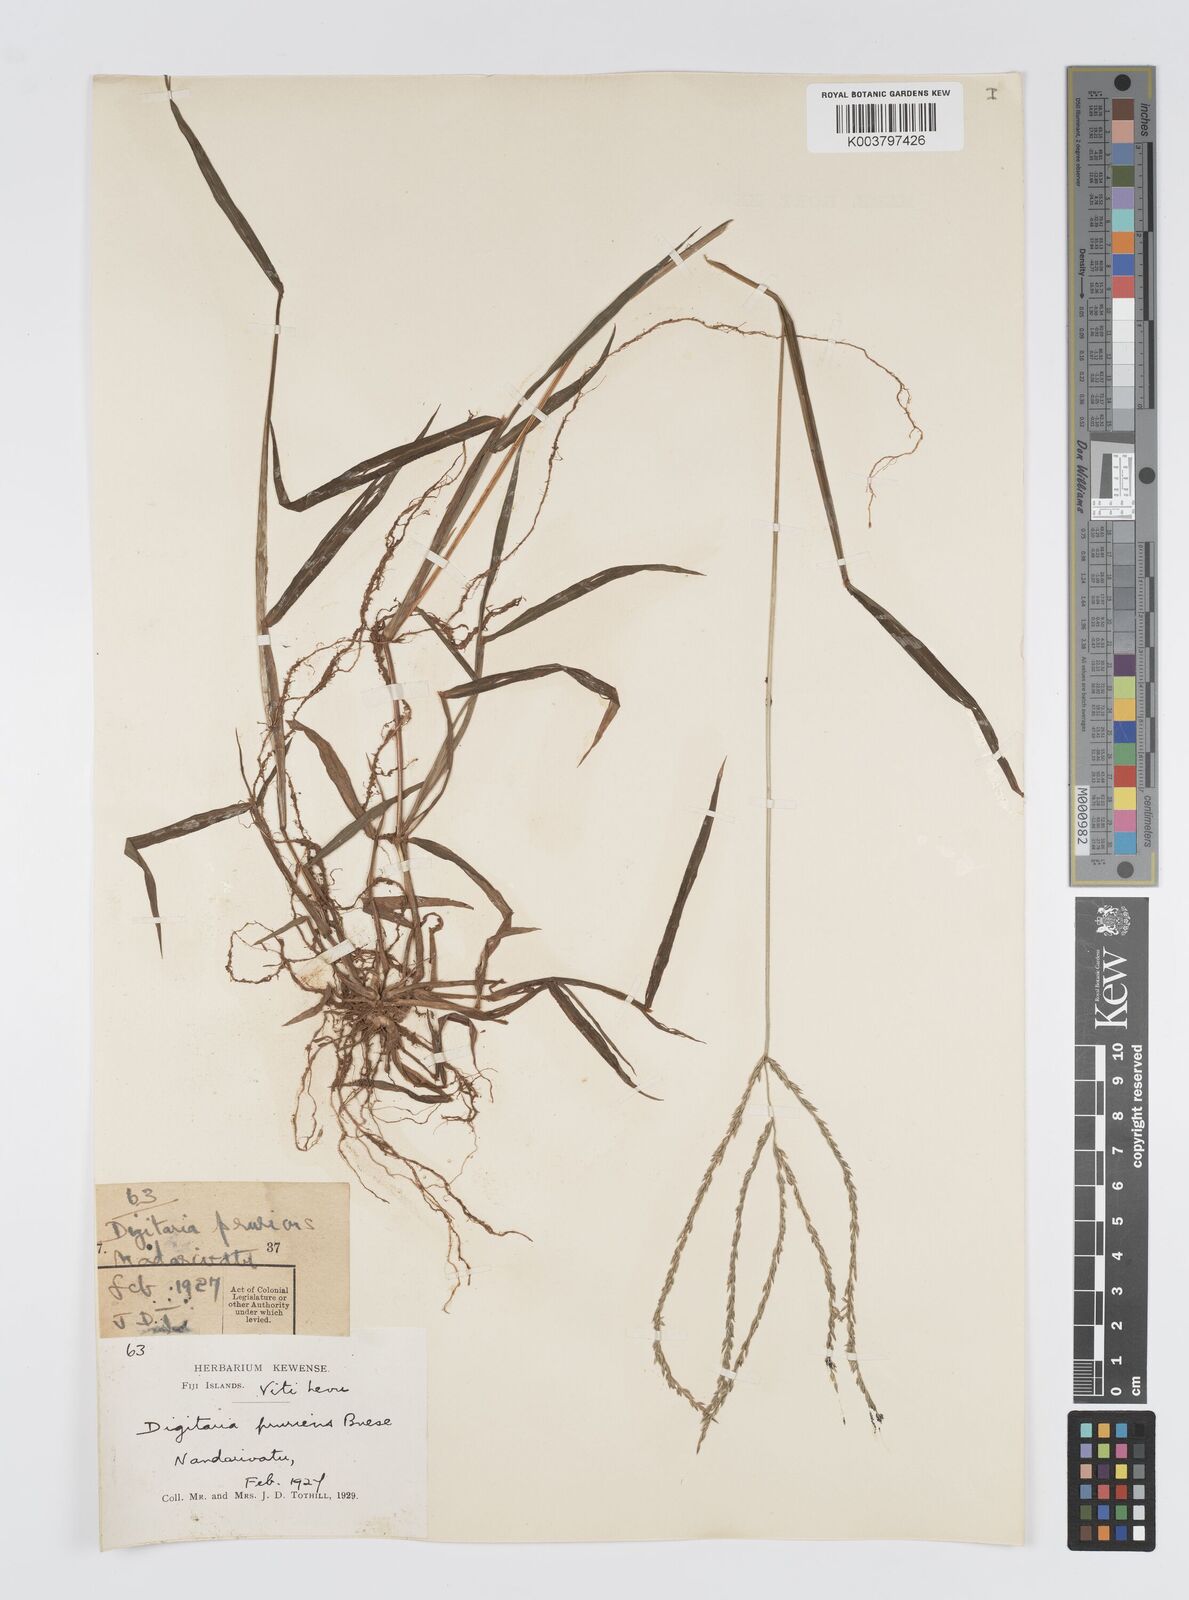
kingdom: Plantae
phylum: Tracheophyta
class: Liliopsida
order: Poales
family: Poaceae
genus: Digitaria
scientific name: Digitaria setigera
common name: East indian crabgrass
